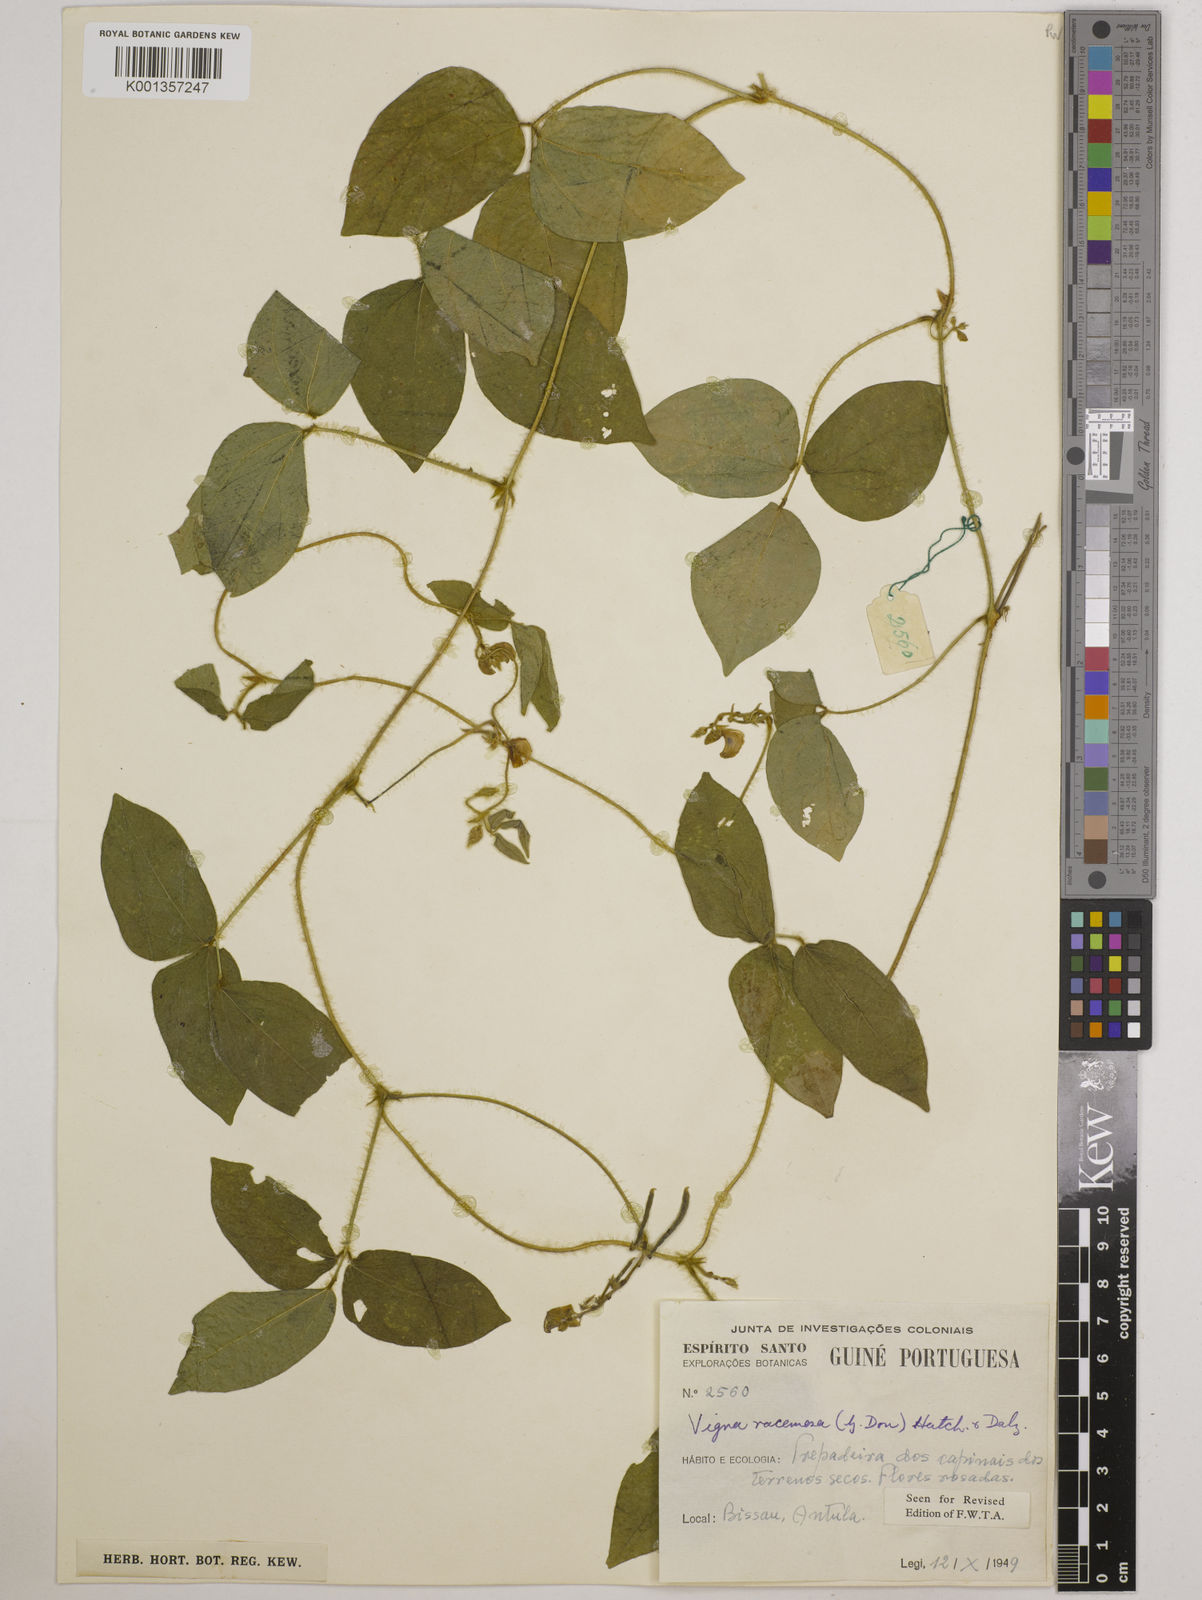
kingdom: Plantae
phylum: Tracheophyta
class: Magnoliopsida
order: Fabales
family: Fabaceae
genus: Vigna
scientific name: Vigna racemosa
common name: Beans not eaten
